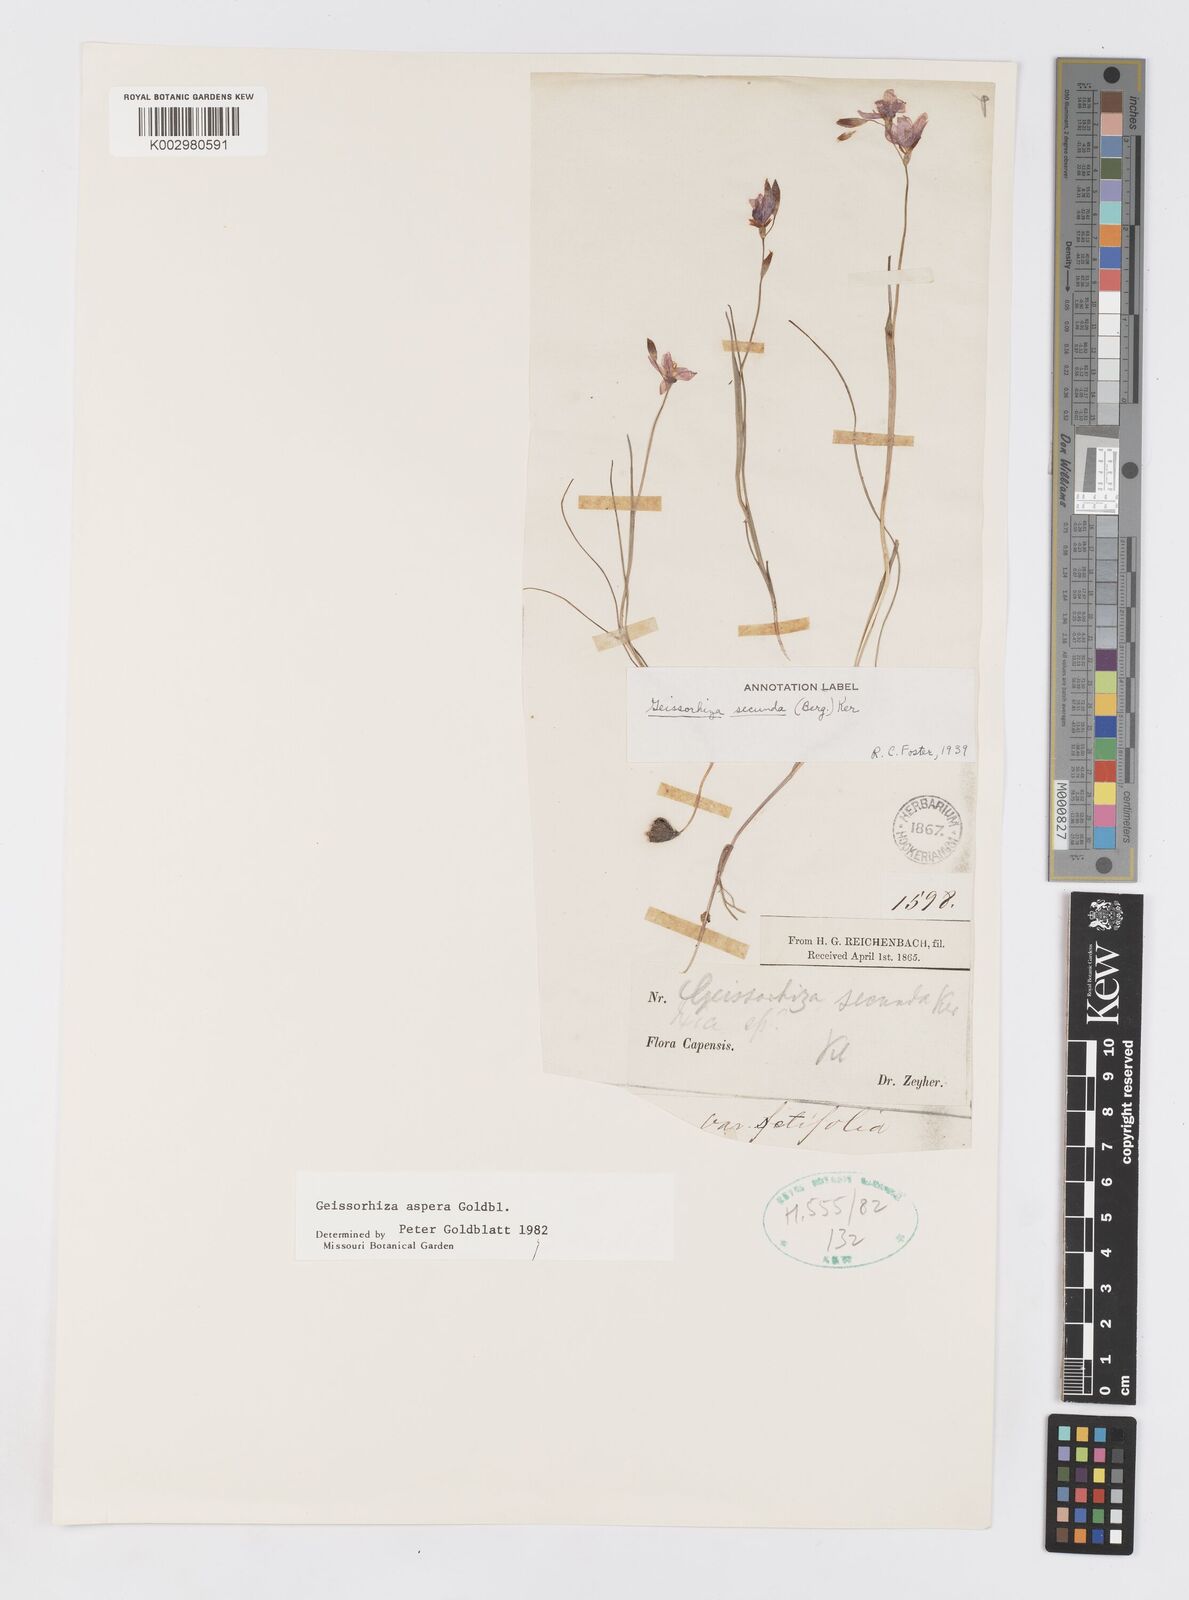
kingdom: Plantae
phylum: Tracheophyta
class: Liliopsida
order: Asparagales
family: Iridaceae
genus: Geissorhiza
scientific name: Geissorhiza aspera
